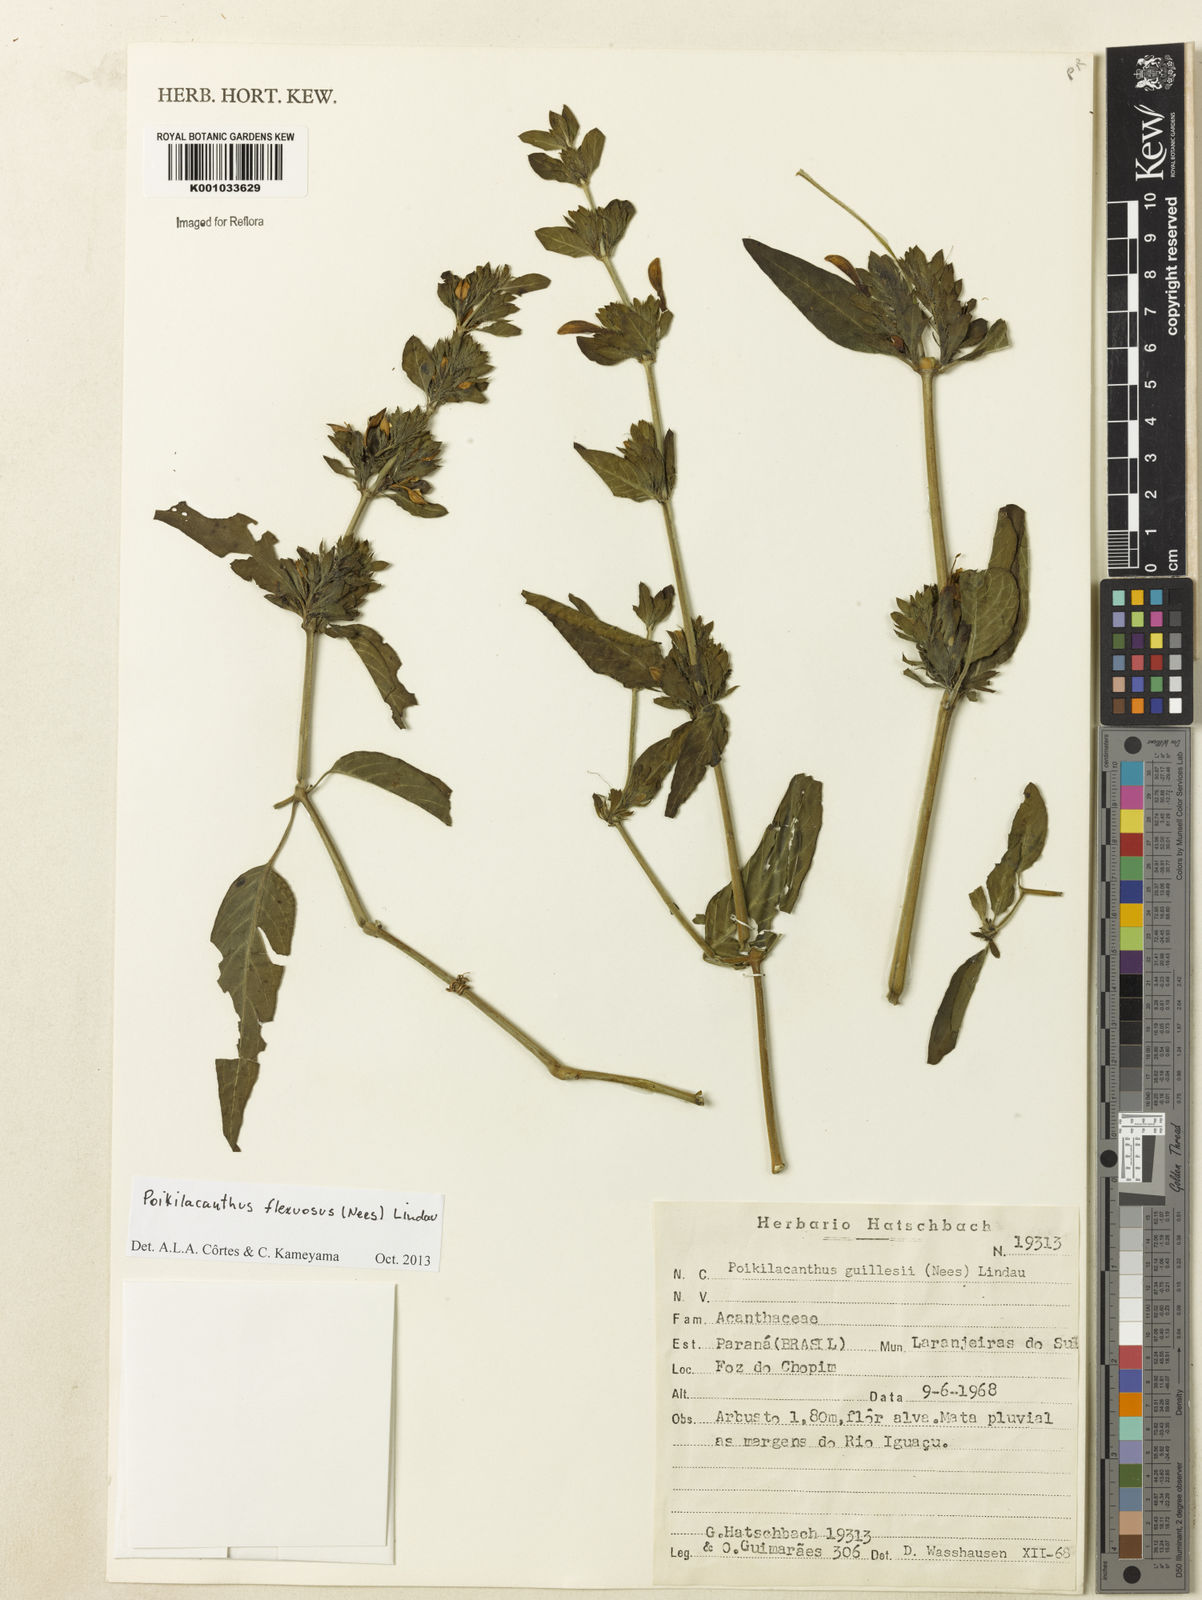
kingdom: Plantae
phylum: Tracheophyta
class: Magnoliopsida
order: Lamiales
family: Acanthaceae
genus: Poikilacanthus
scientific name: Poikilacanthus glandulosus
